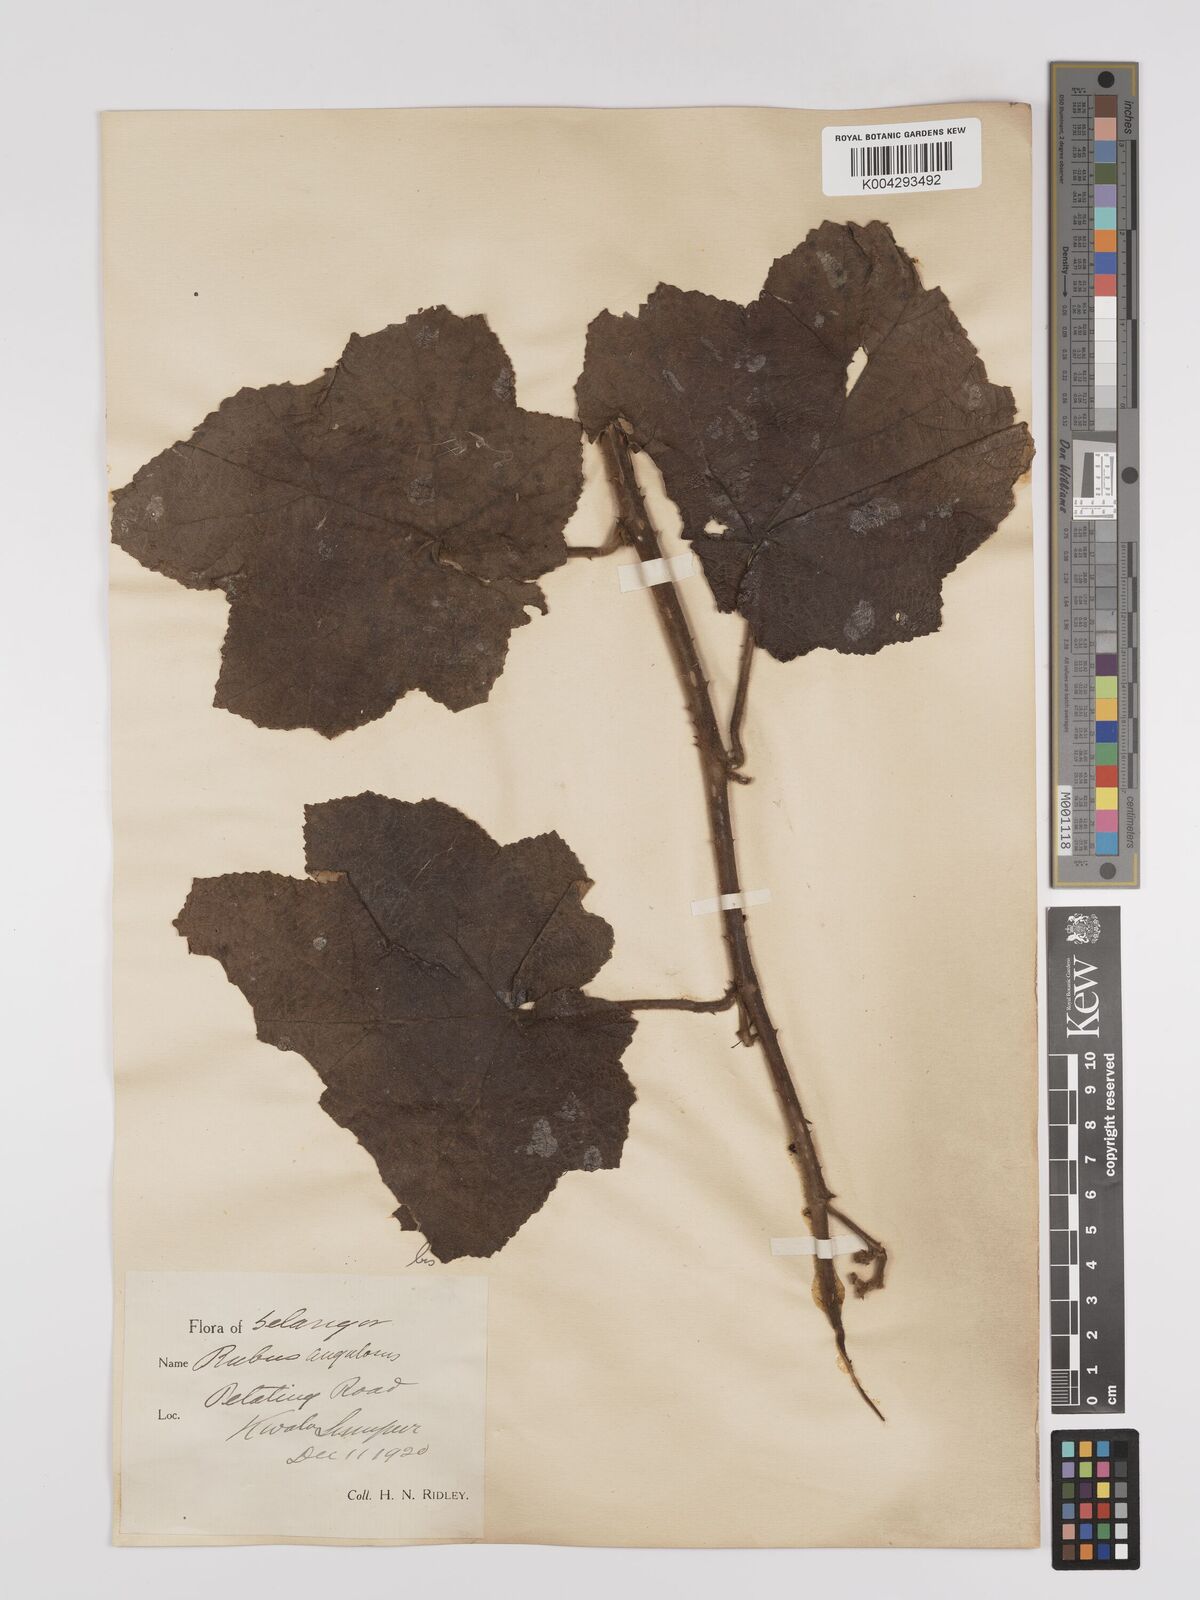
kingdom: Plantae
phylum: Tracheophyta
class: Magnoliopsida
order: Rosales
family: Rosaceae
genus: Rubus
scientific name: Rubus moluccanus
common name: Wild raspberry
